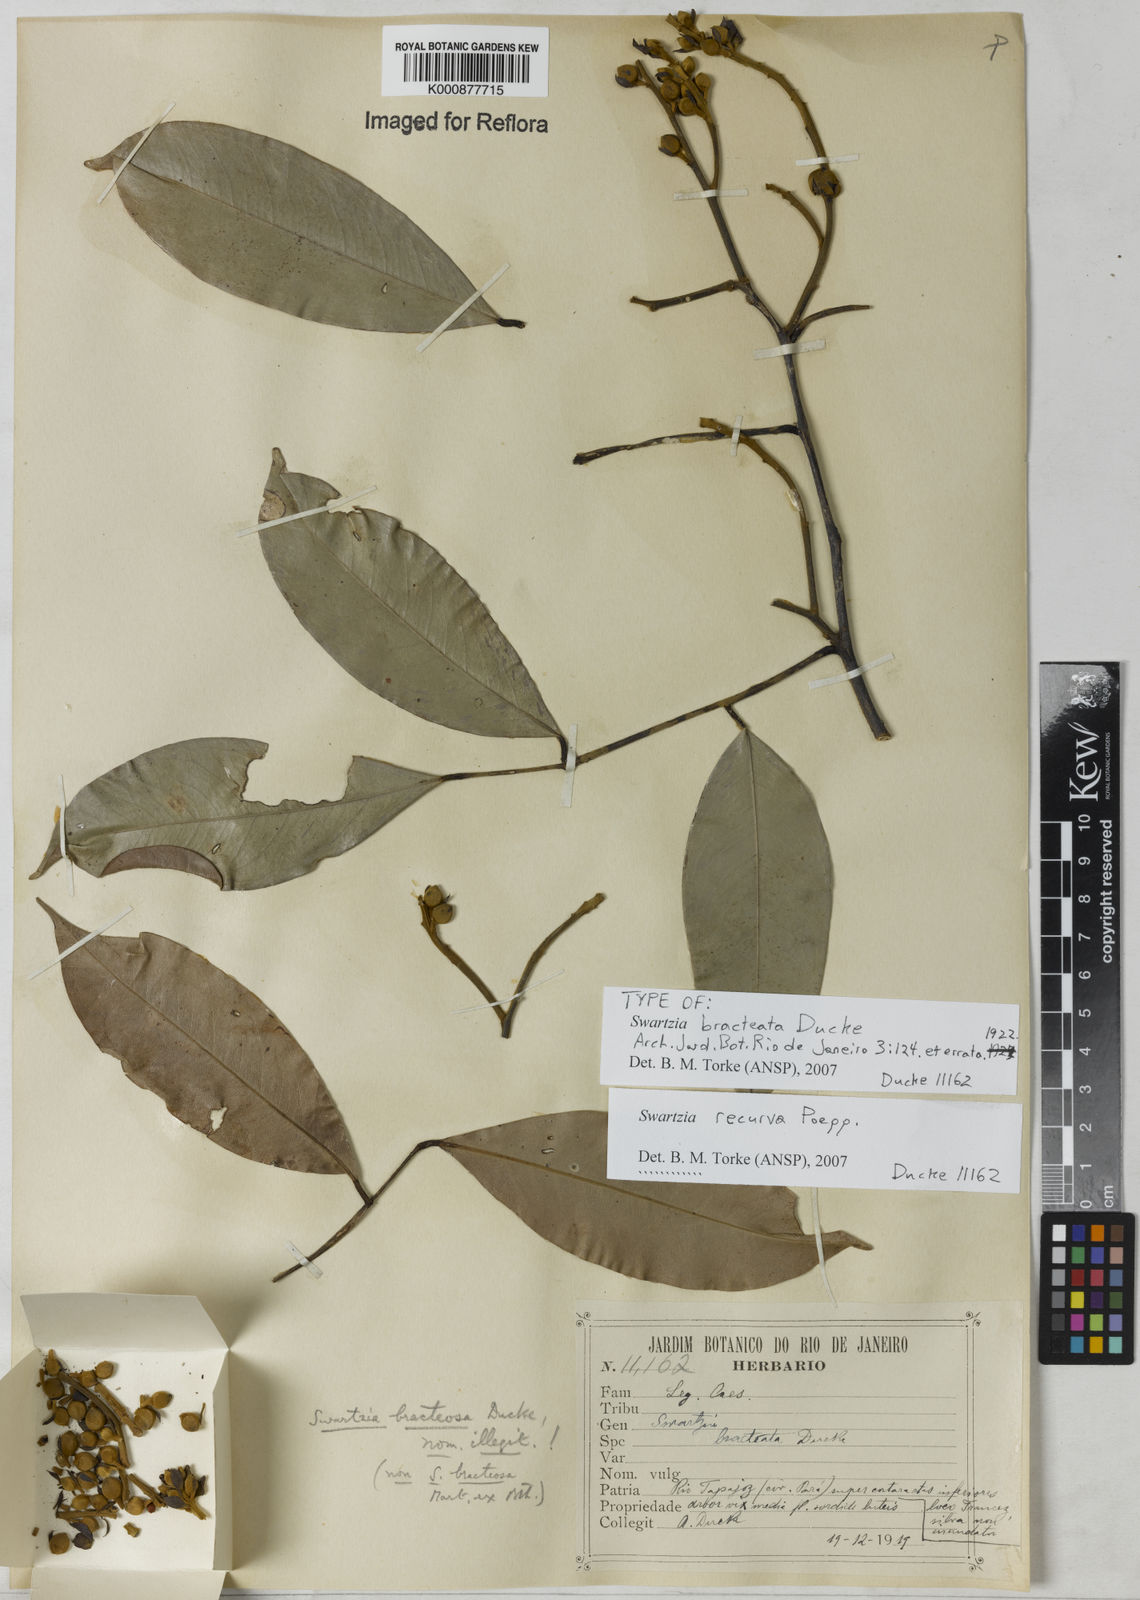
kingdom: Plantae
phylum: Tracheophyta
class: Magnoliopsida
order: Fabales
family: Fabaceae
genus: Swartzia
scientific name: Swartzia recurva
